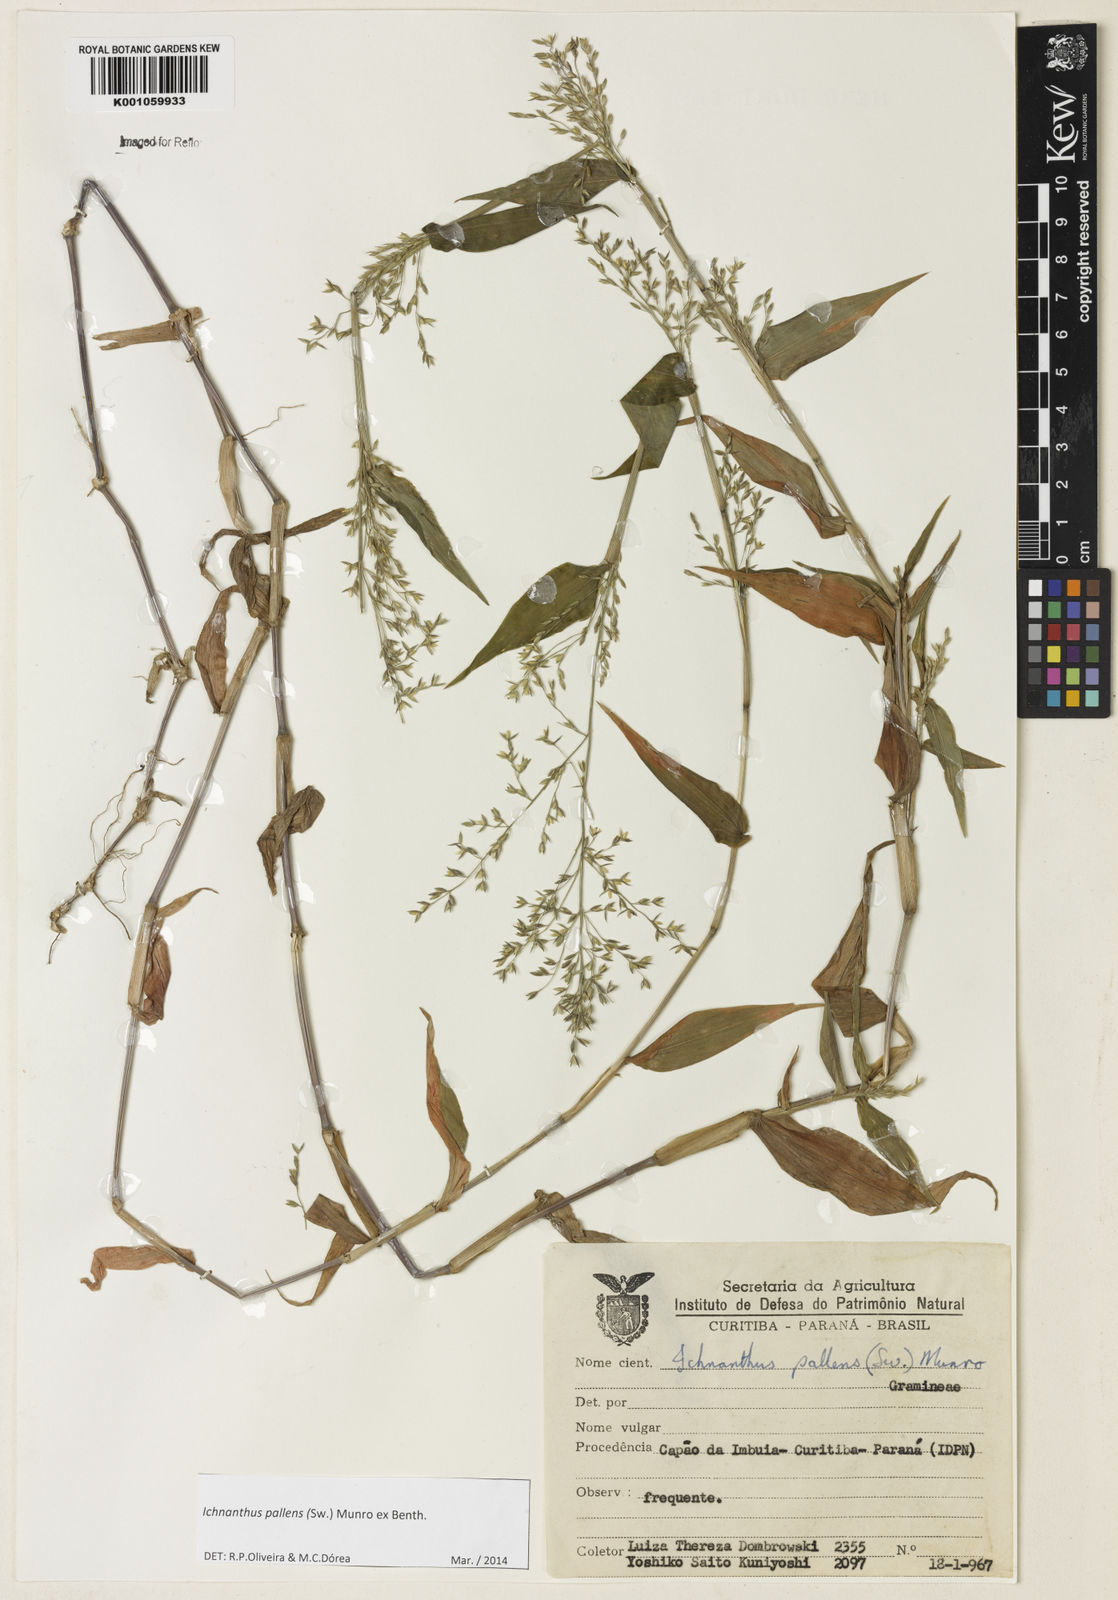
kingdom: Plantae
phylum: Tracheophyta
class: Liliopsida
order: Poales
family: Poaceae
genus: Ichnanthus
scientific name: Ichnanthus pallens
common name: Water grass
